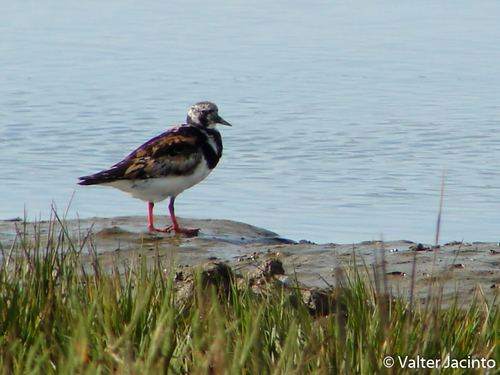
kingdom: Animalia
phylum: Chordata
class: Aves
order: Charadriiformes
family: Scolopacidae
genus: Arenaria
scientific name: Arenaria interpres
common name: Ruddy turnstone
